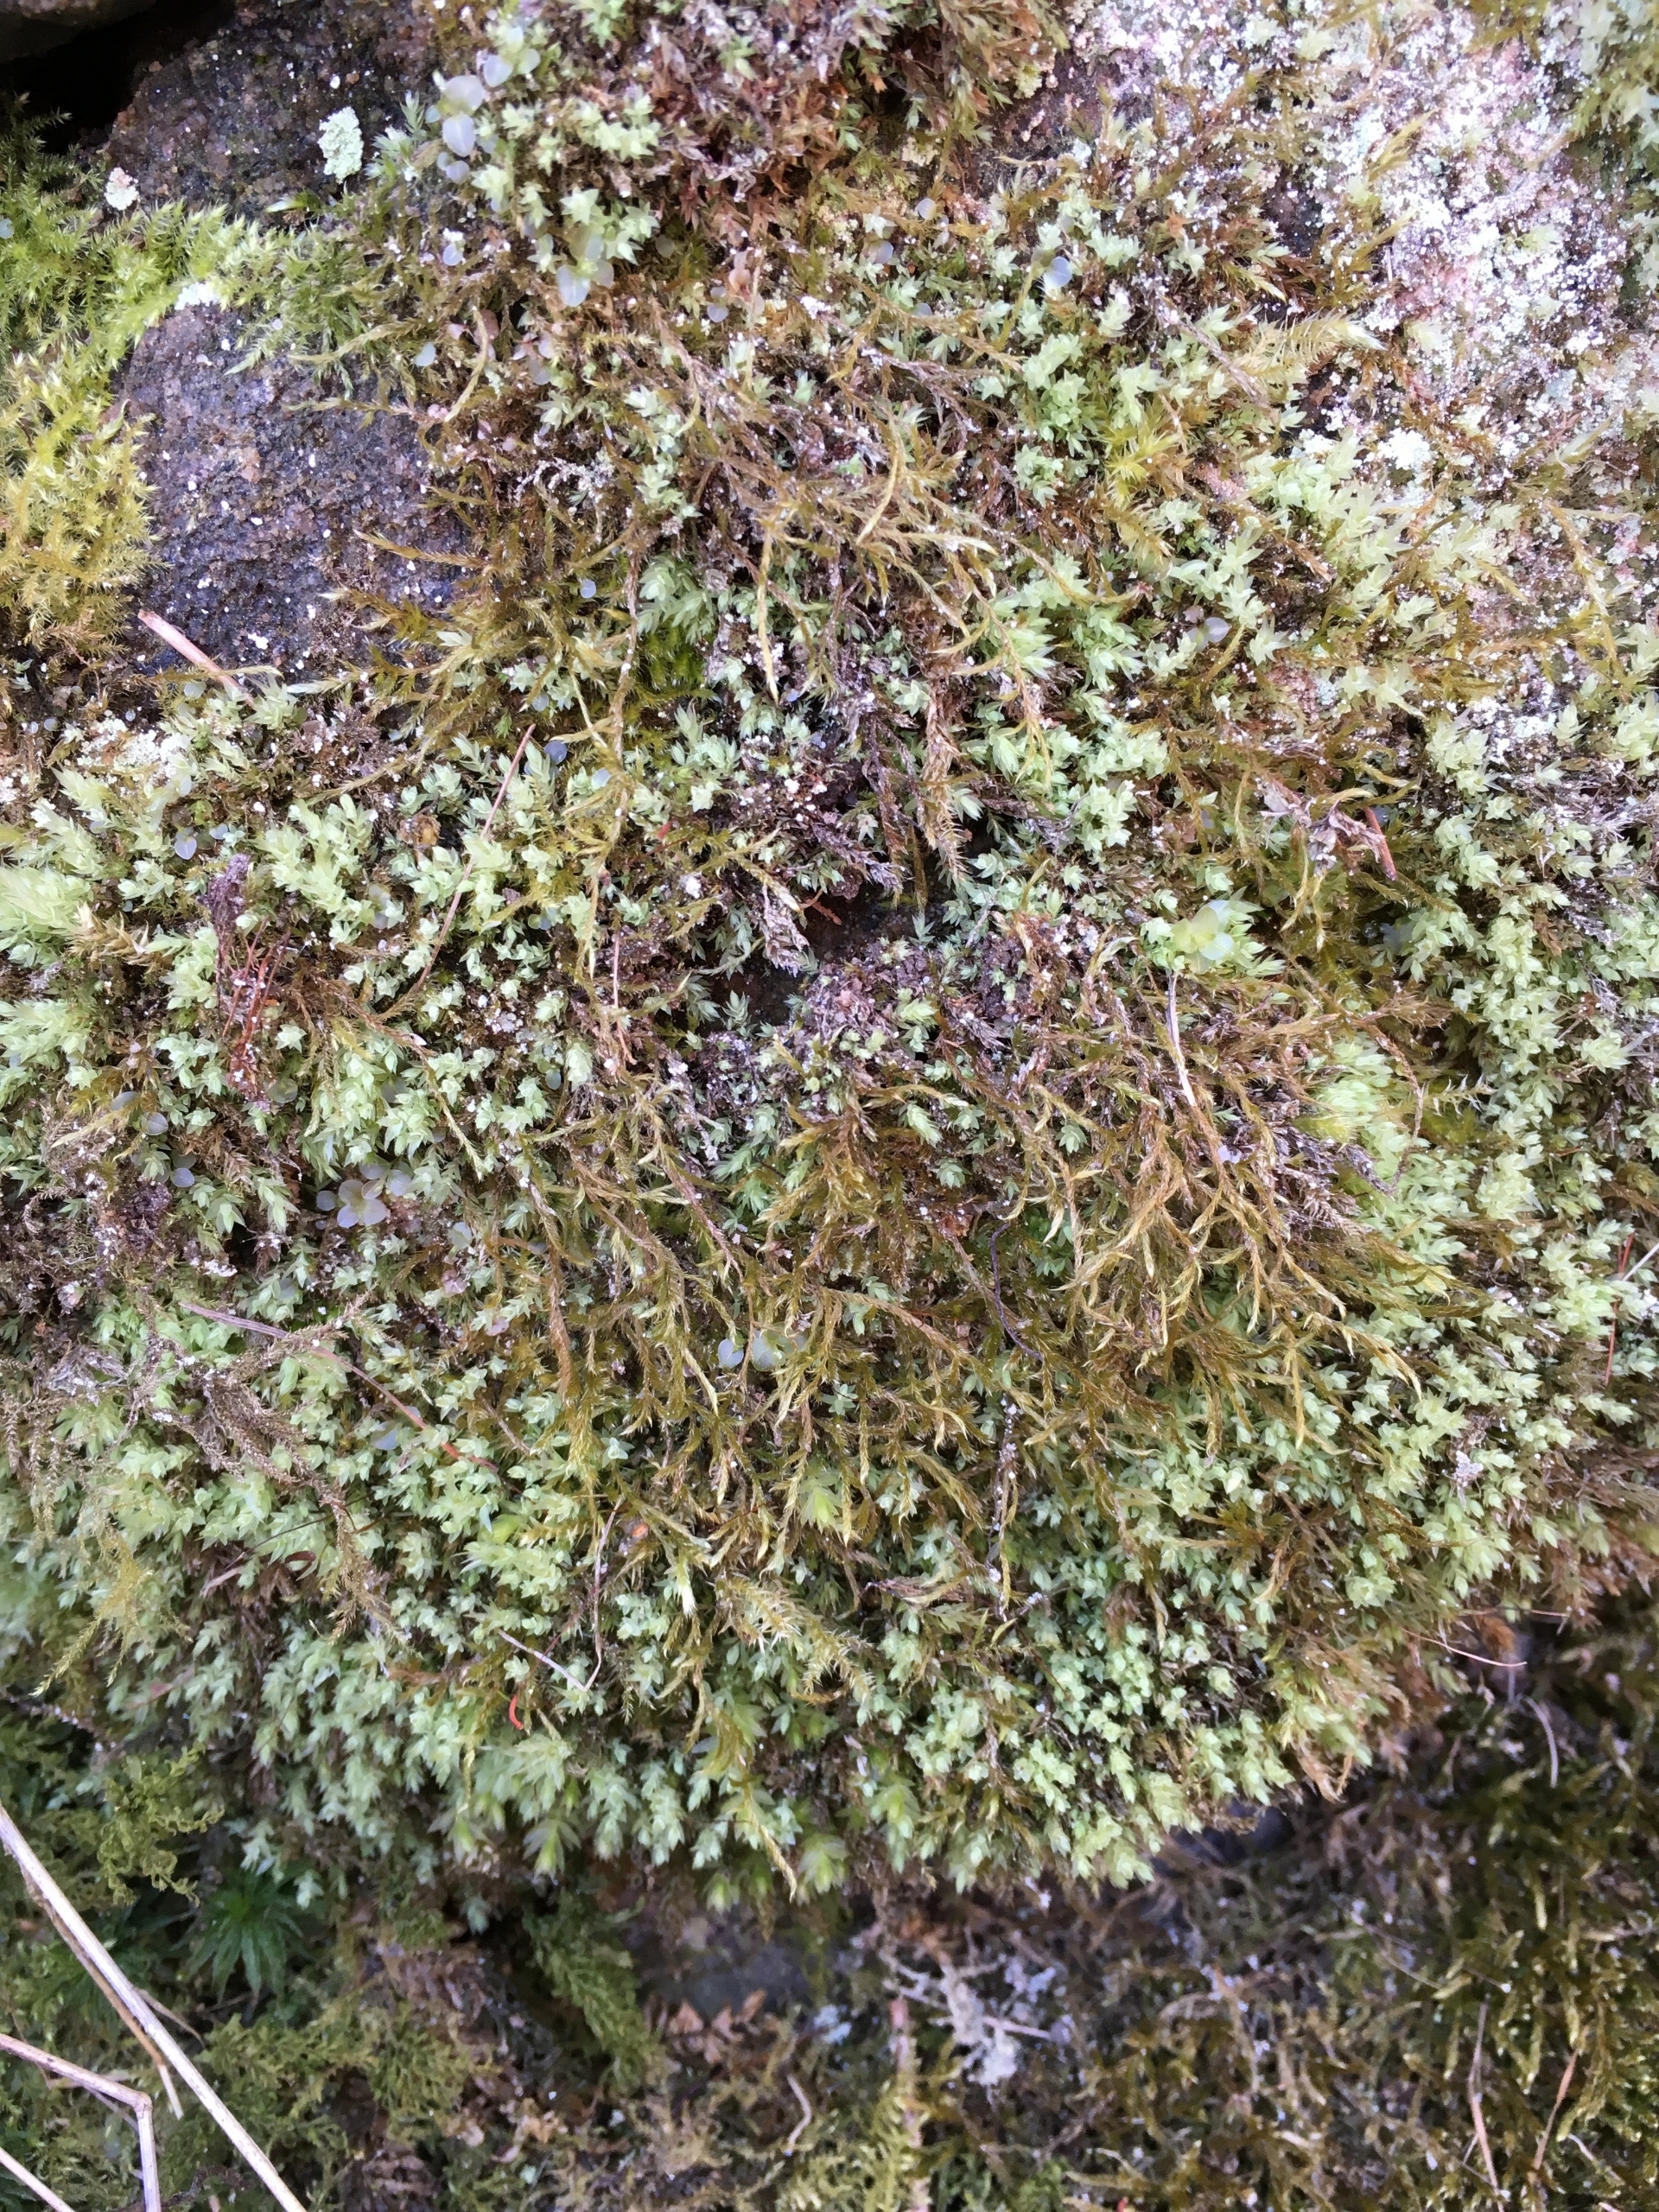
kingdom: Plantae
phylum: Bryophyta
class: Bryopsida
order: Bryales
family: Mniaceae
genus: Pohlia
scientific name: Pohlia cruda
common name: Opaliserende nikkemos
